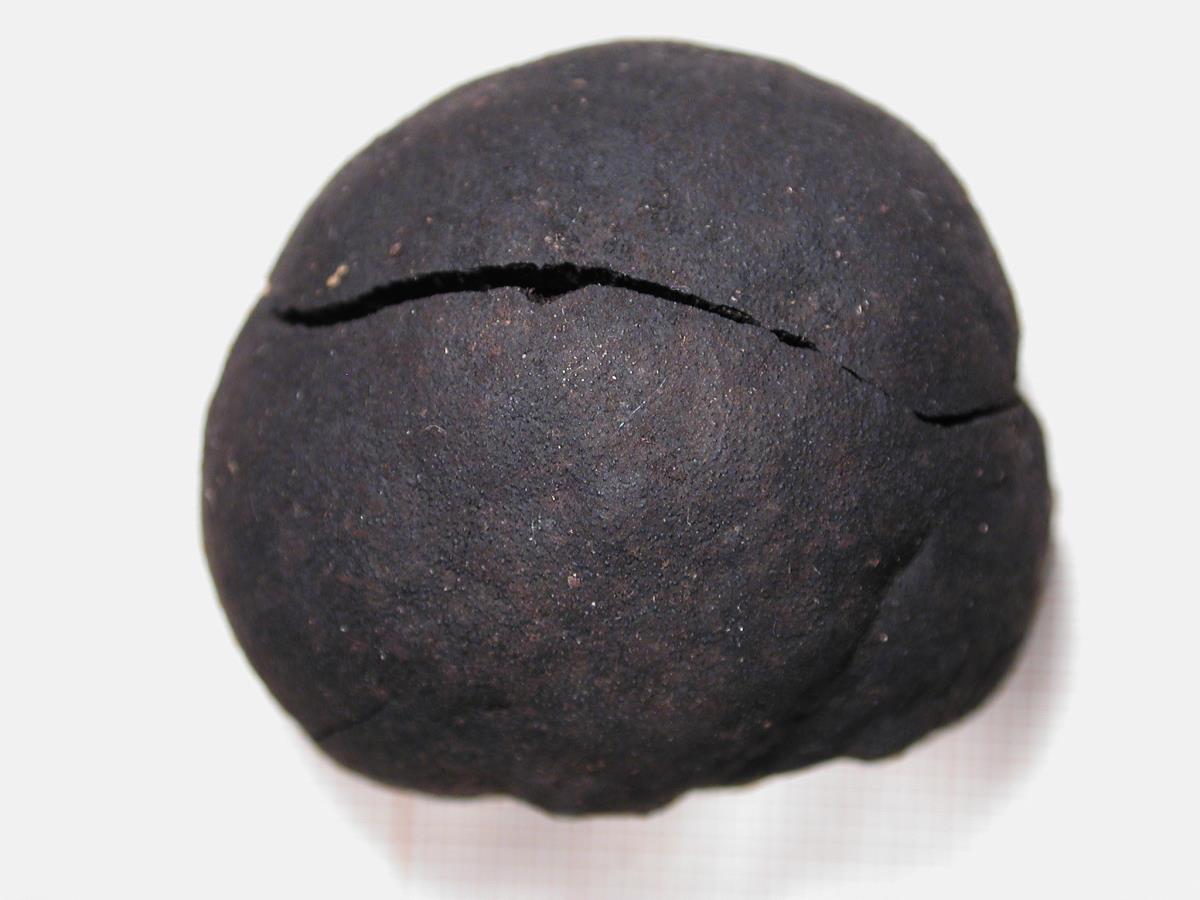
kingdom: Fungi
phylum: Ascomycota
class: Sordariomycetes
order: Xylariales
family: Hypoxylaceae
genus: Daldinia
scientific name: Daldinia dennisii
